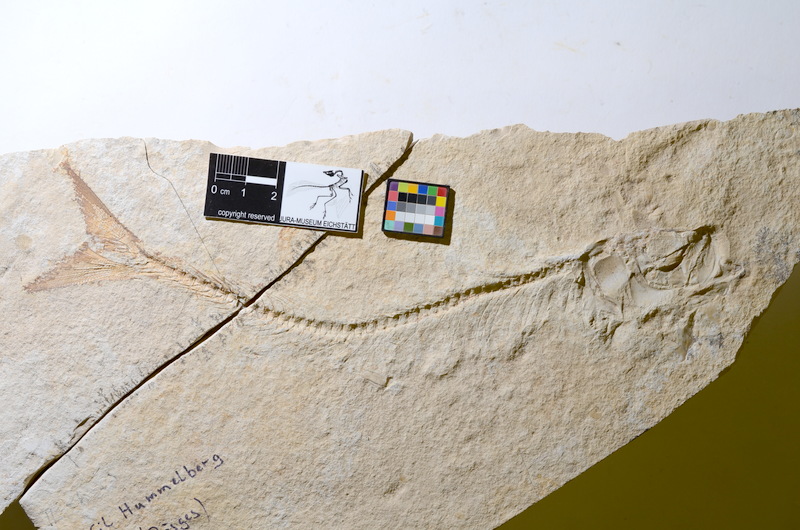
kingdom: Animalia
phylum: Chordata
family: Allothrissopidae
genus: Allothrissops
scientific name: Allothrissops
